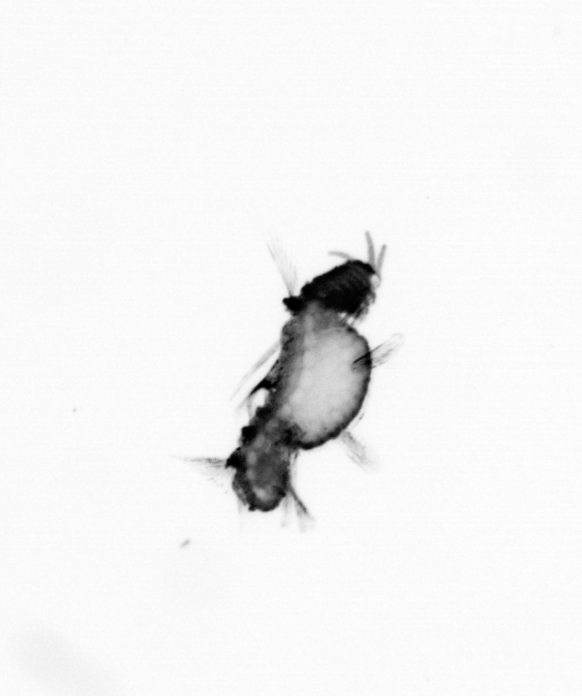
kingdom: Animalia
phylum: Annelida
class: Polychaeta
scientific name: Polychaeta
